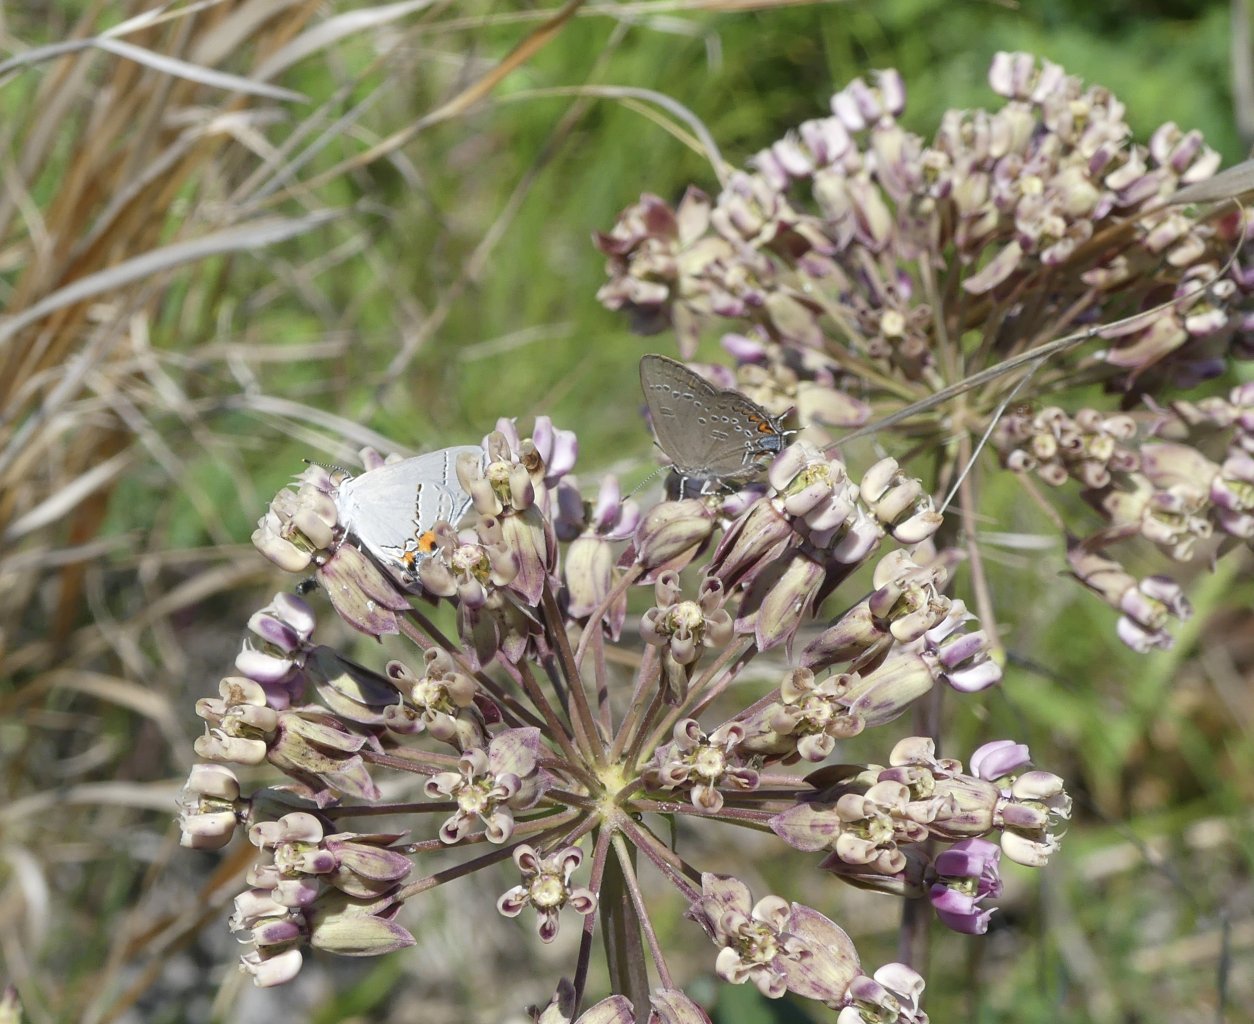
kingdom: Animalia
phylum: Arthropoda
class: Insecta
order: Lepidoptera
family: Lycaenidae
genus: Strymon
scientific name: Strymon melinus
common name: Gray Hairstreak
